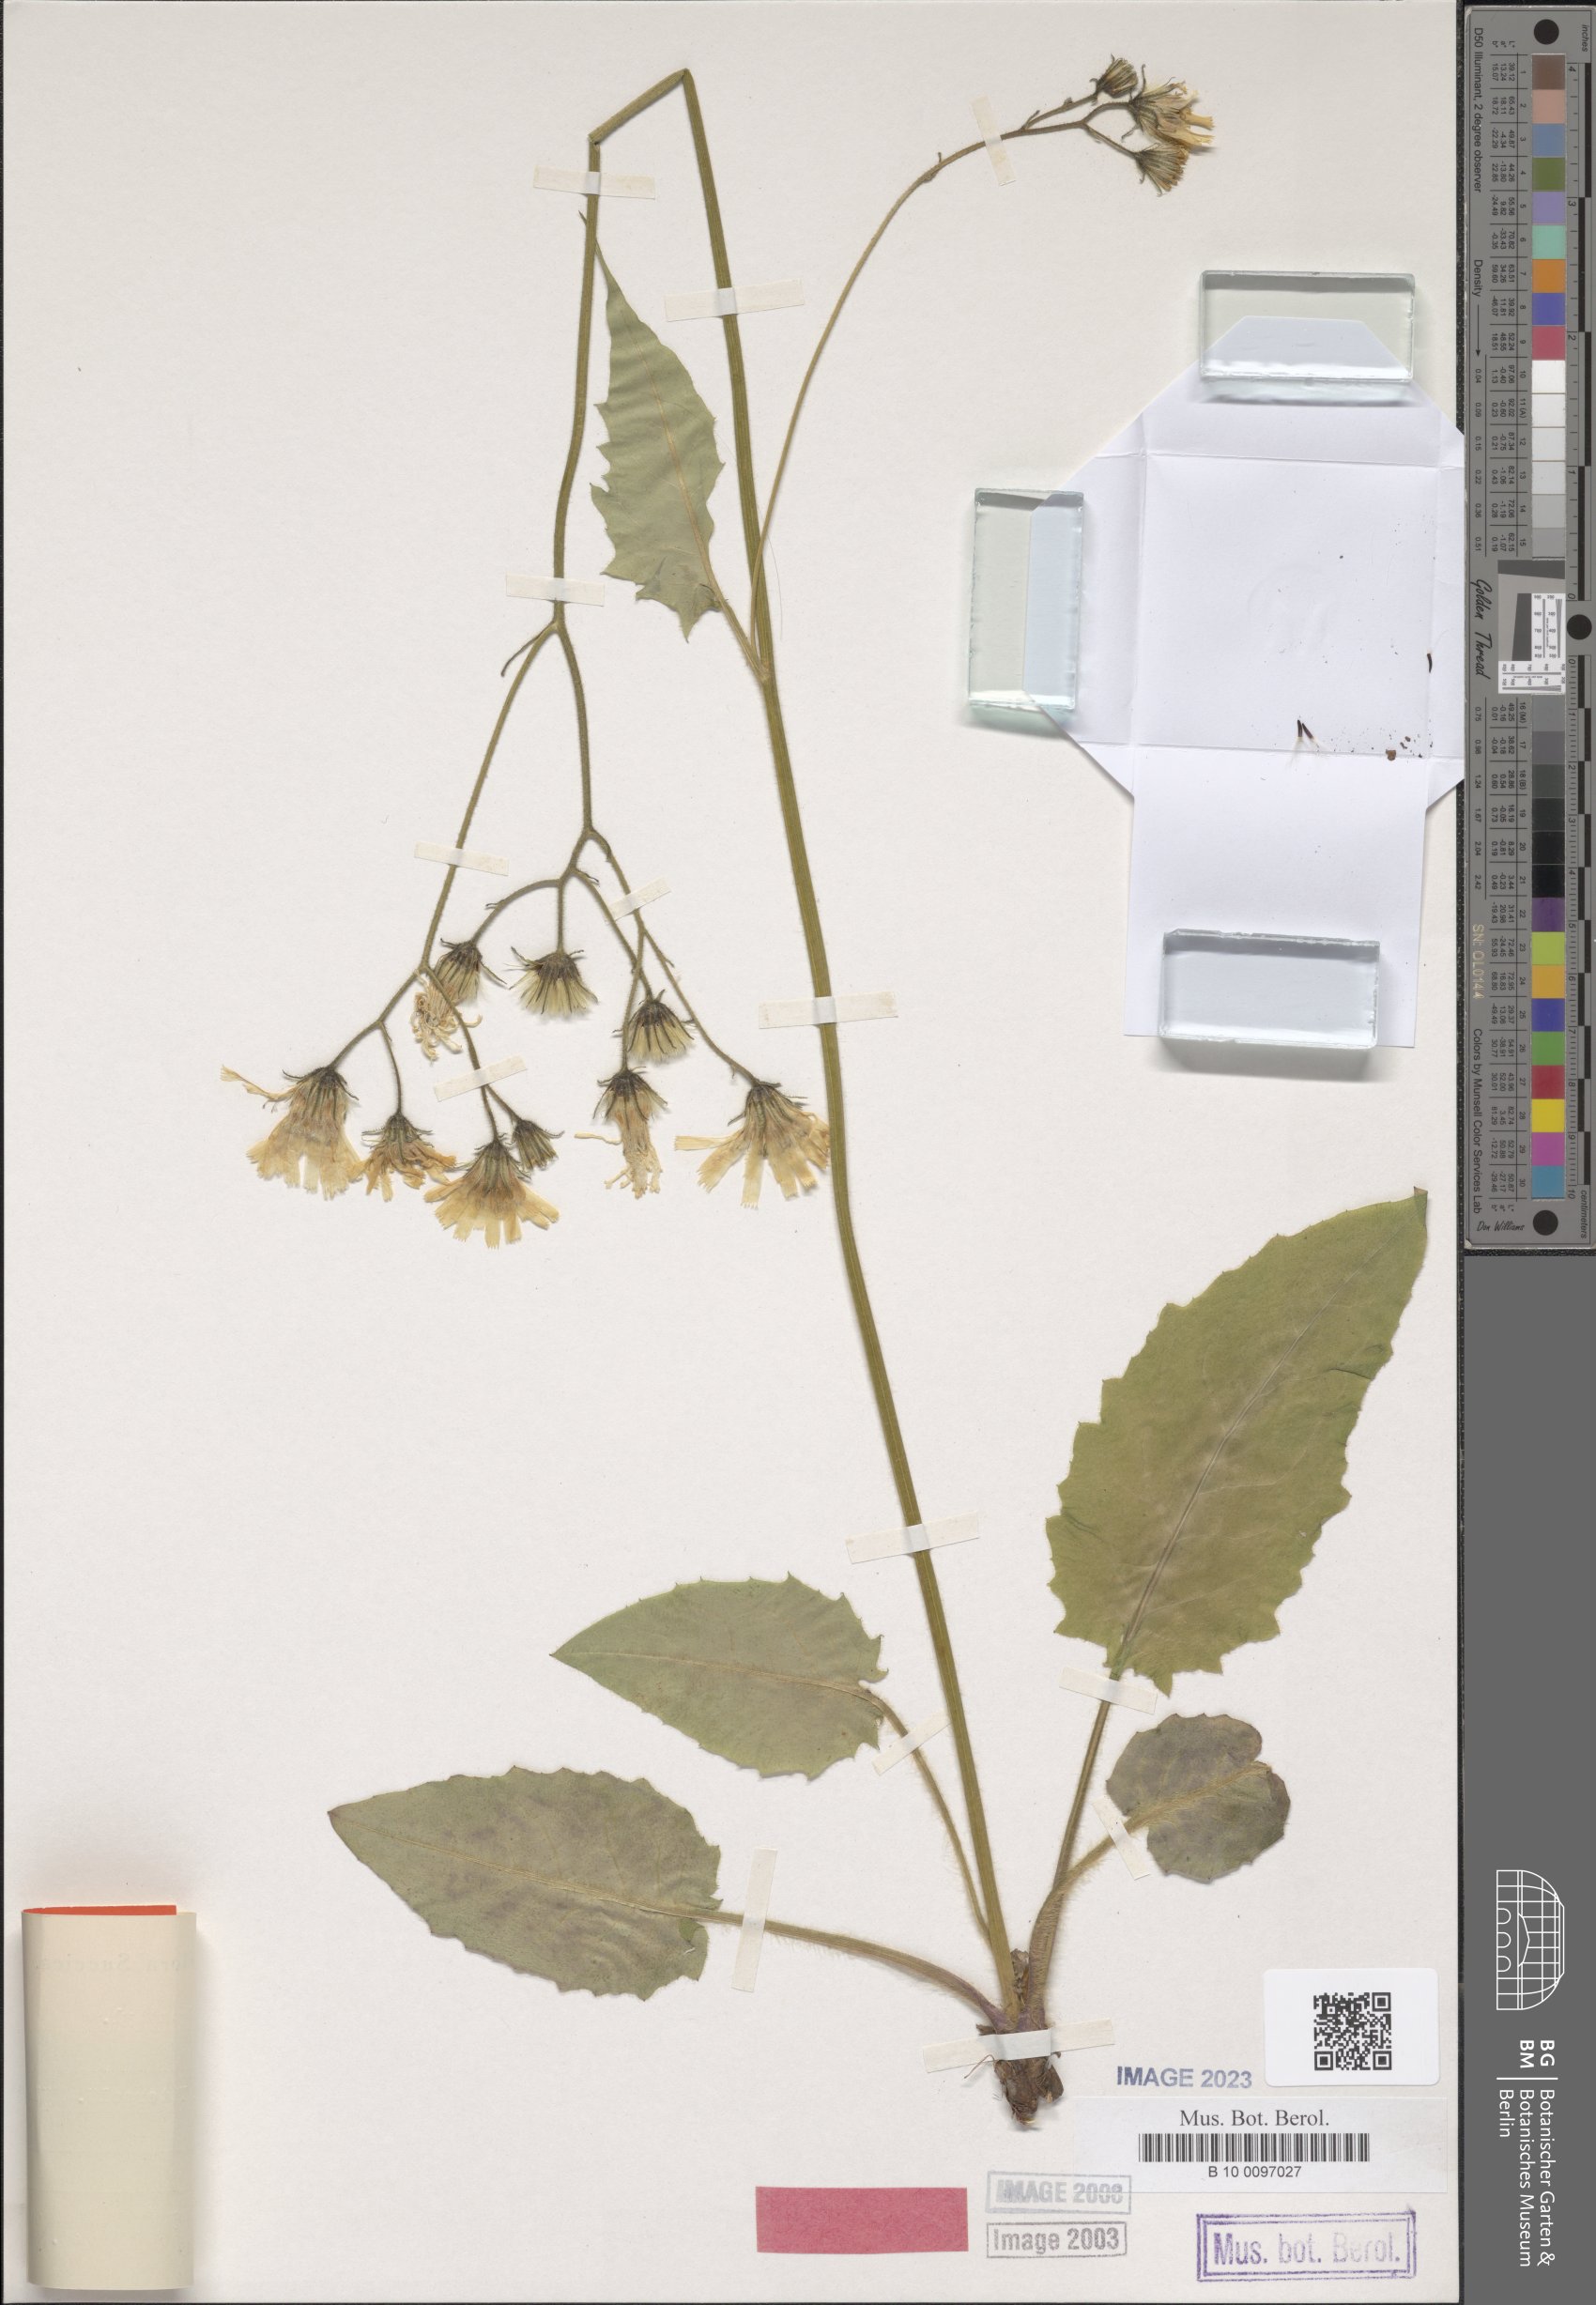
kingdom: Plantae
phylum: Tracheophyta
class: Magnoliopsida
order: Asterales
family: Asteraceae
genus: Hieracium
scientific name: Hieracium aterrimum
